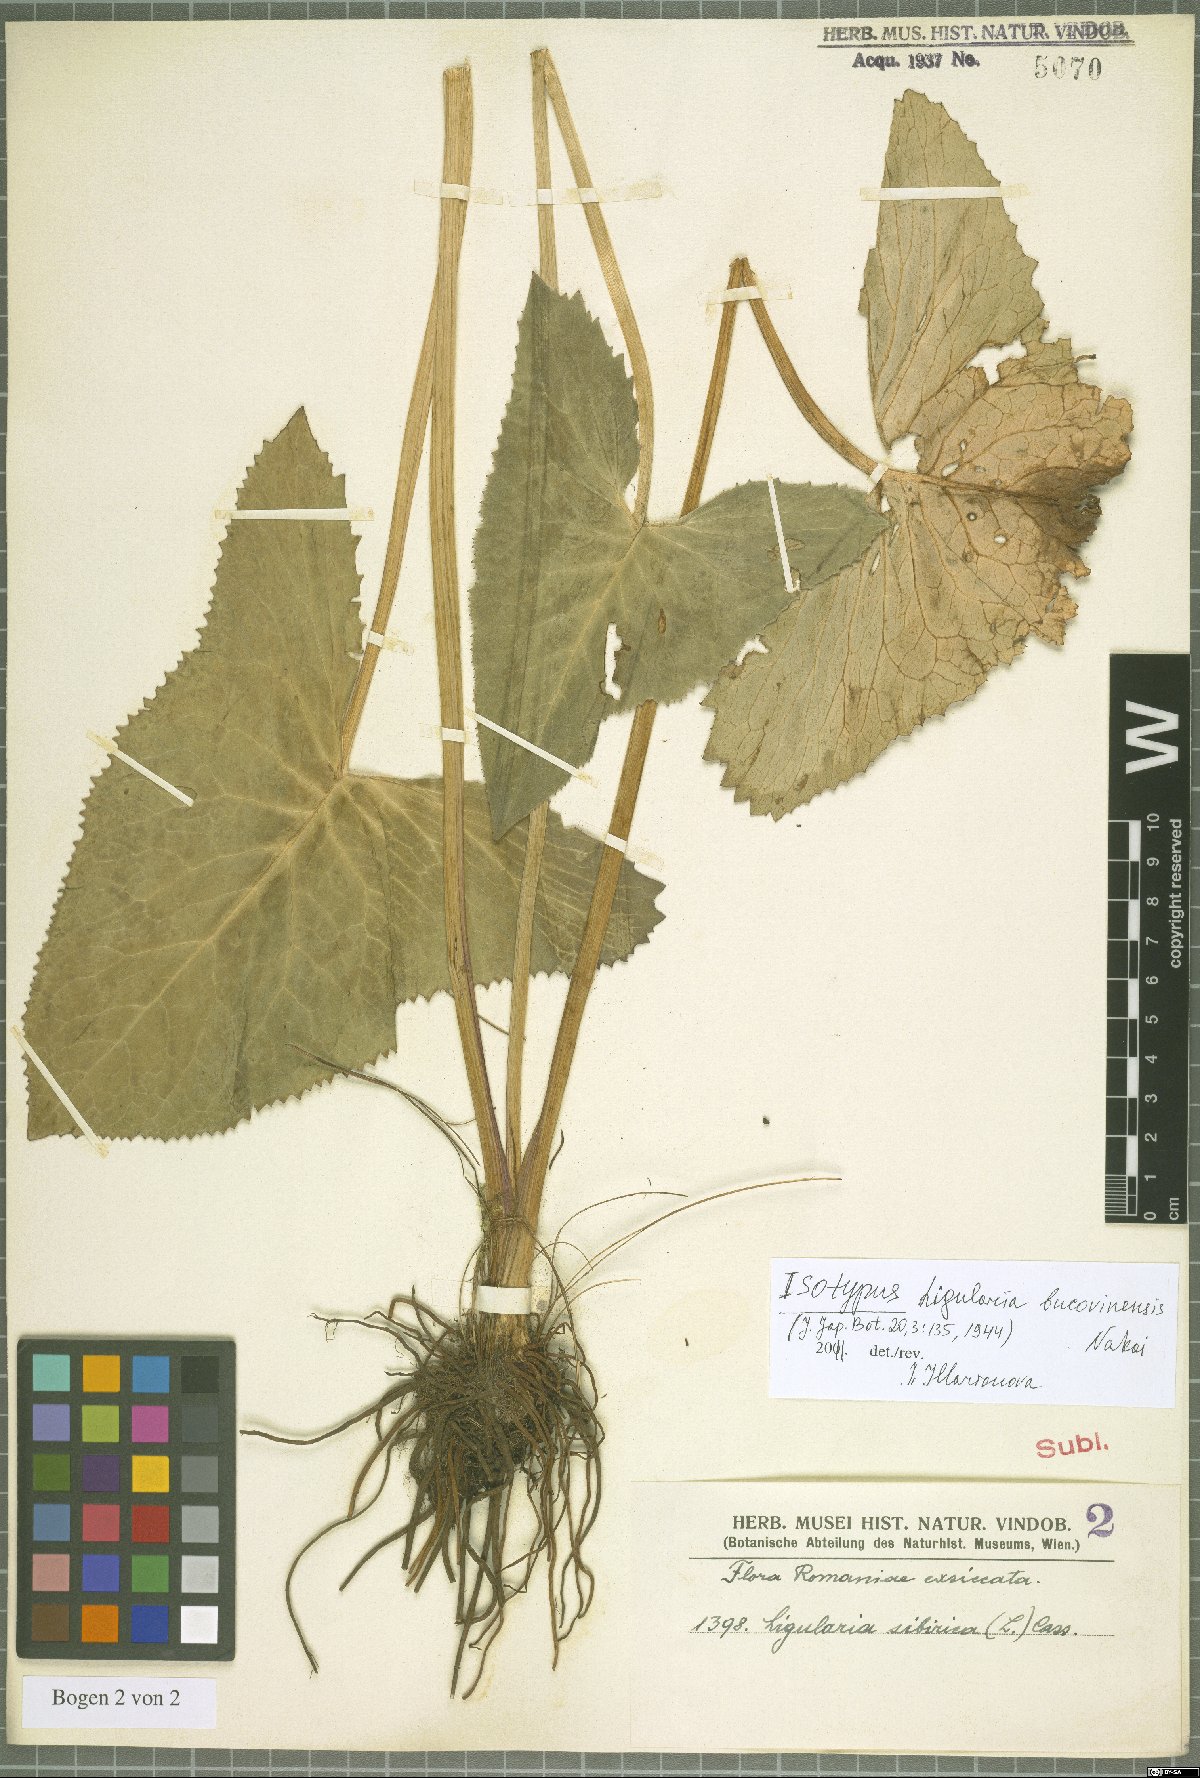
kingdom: Plantae
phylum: Tracheophyta
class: Magnoliopsida
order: Asterales
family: Asteraceae
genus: Ligularia
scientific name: Ligularia sibirica
